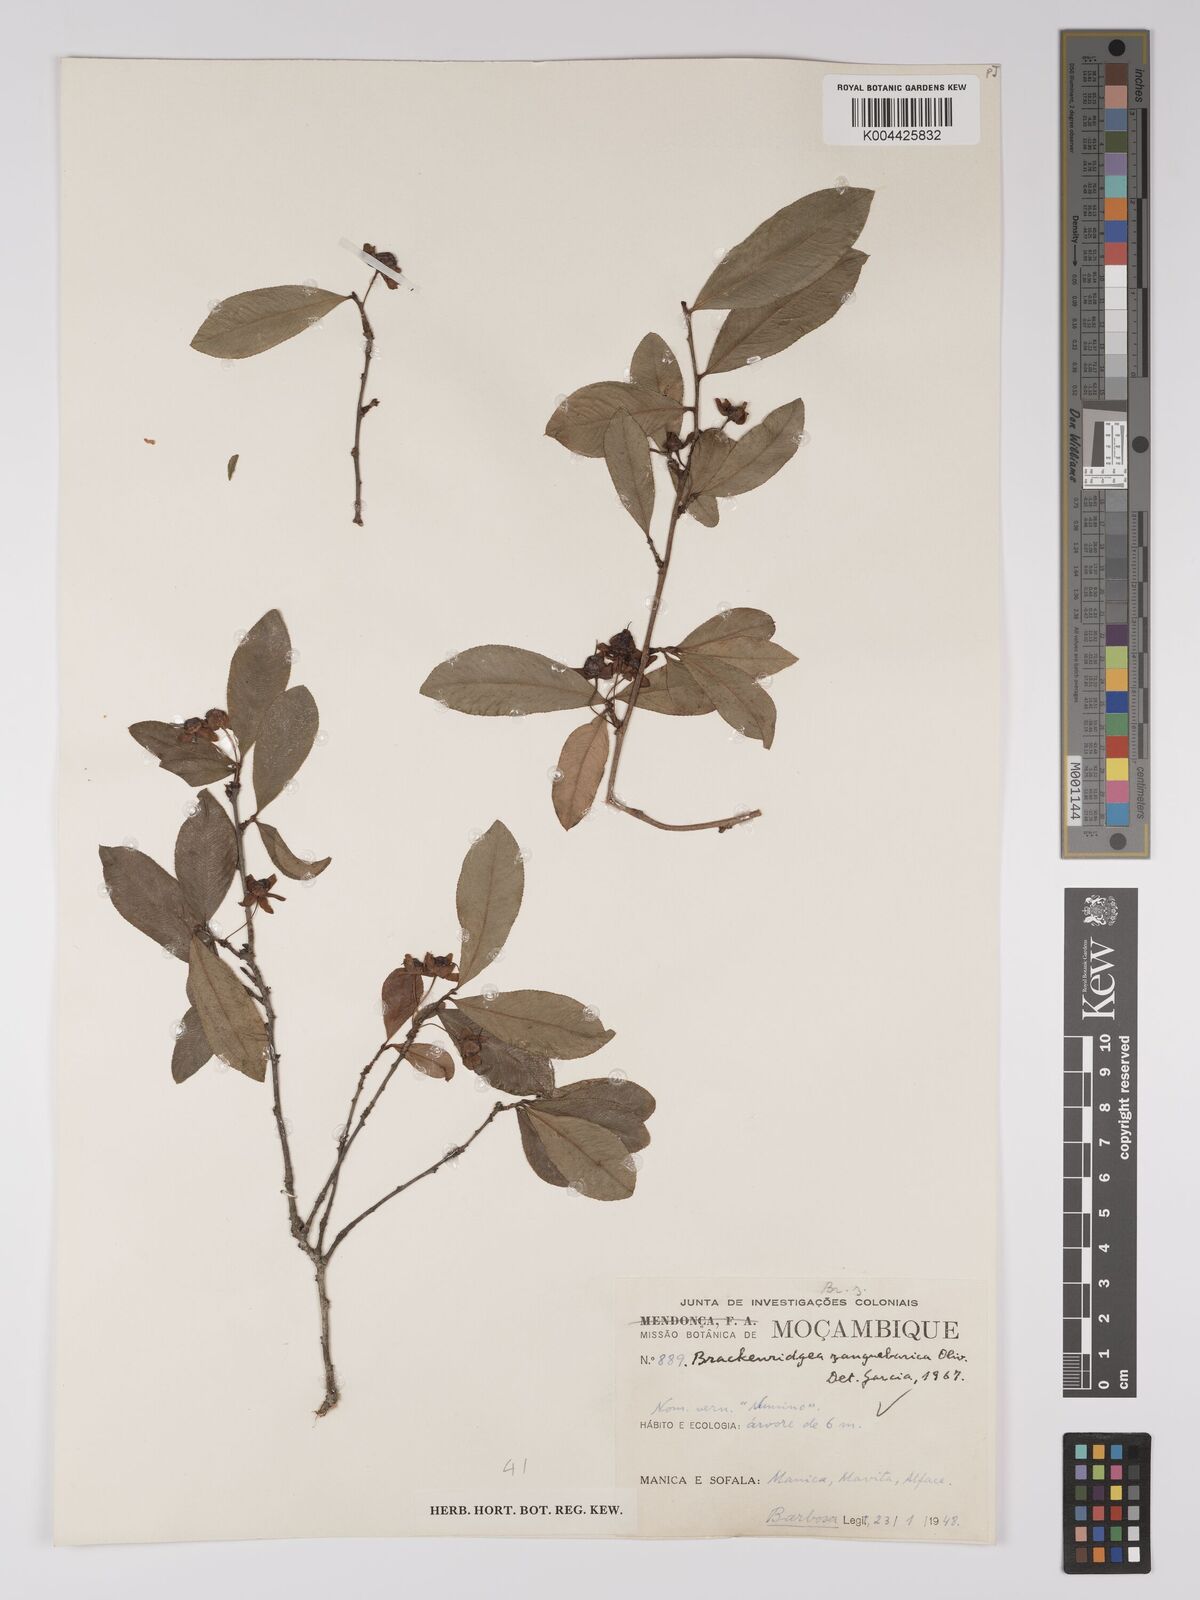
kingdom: Plantae
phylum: Tracheophyta
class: Magnoliopsida
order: Malpighiales
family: Ochnaceae
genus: Brackenridgea
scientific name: Brackenridgea zanguebarica
